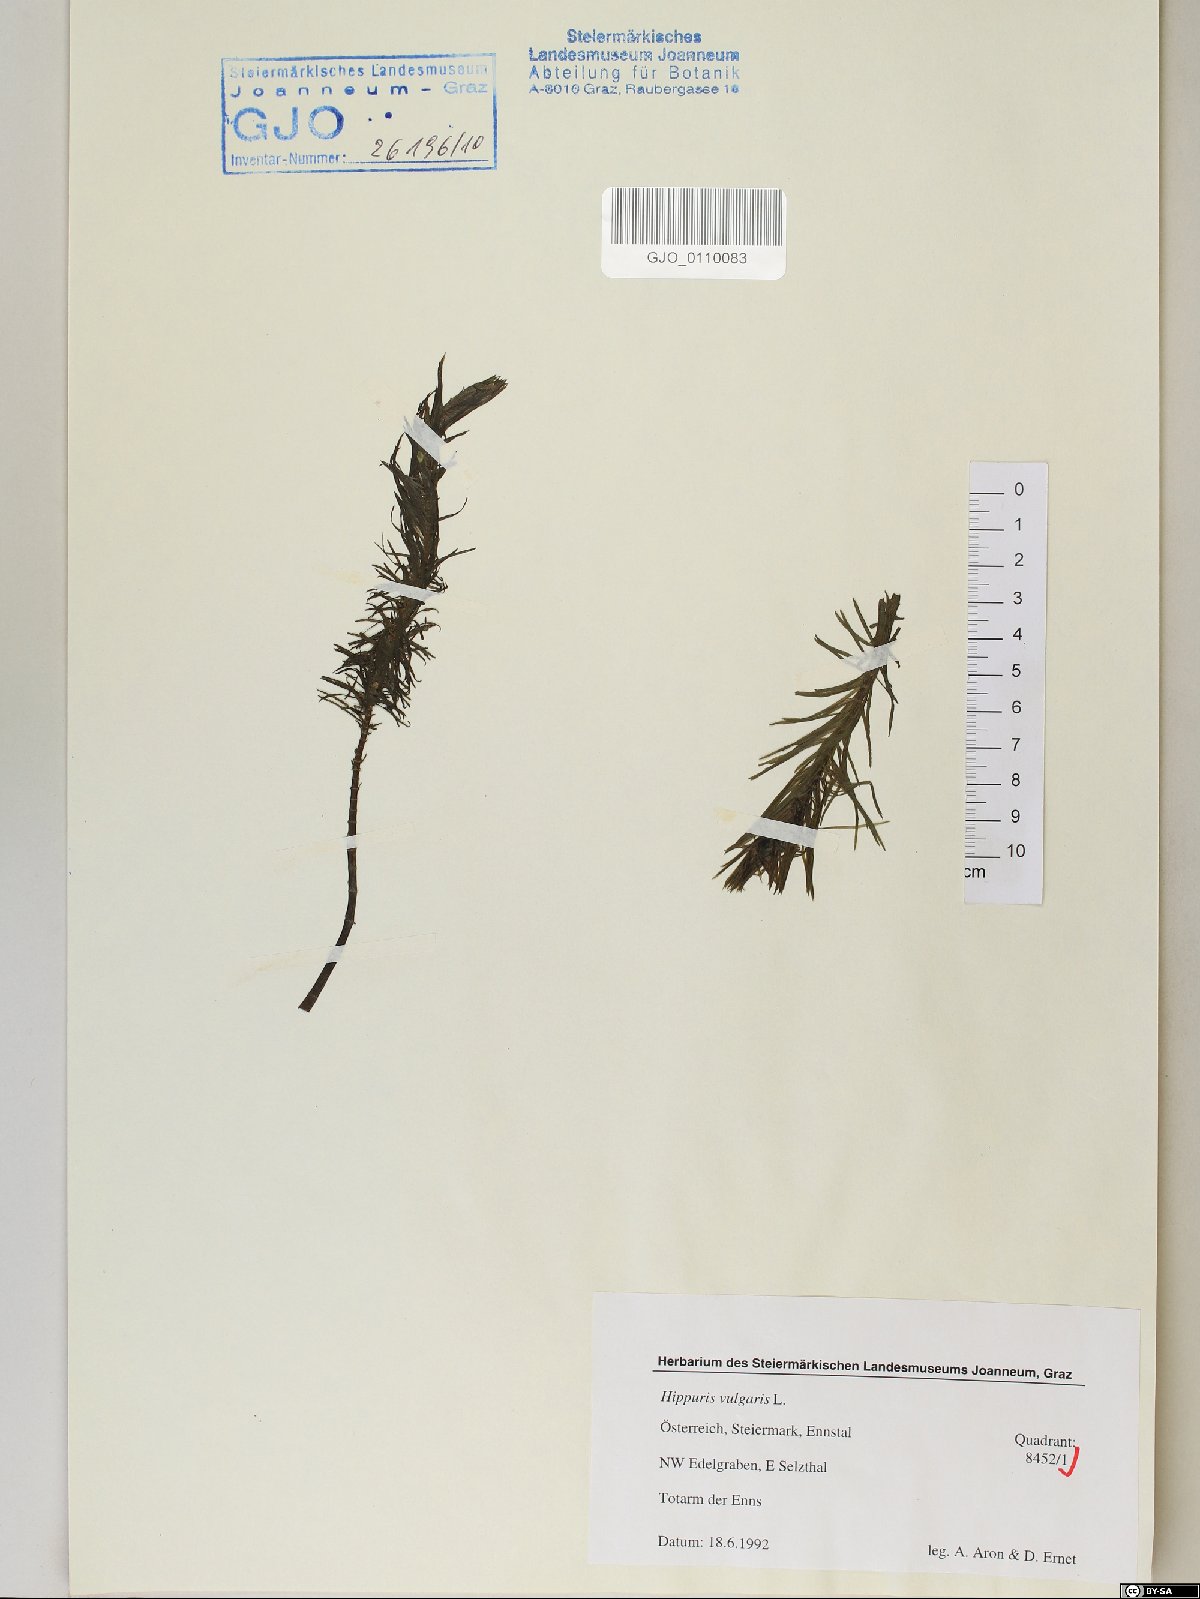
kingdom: Plantae
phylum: Tracheophyta
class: Magnoliopsida
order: Lamiales
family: Plantaginaceae
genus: Hippuris
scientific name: Hippuris vulgaris
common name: Mare's-tail
